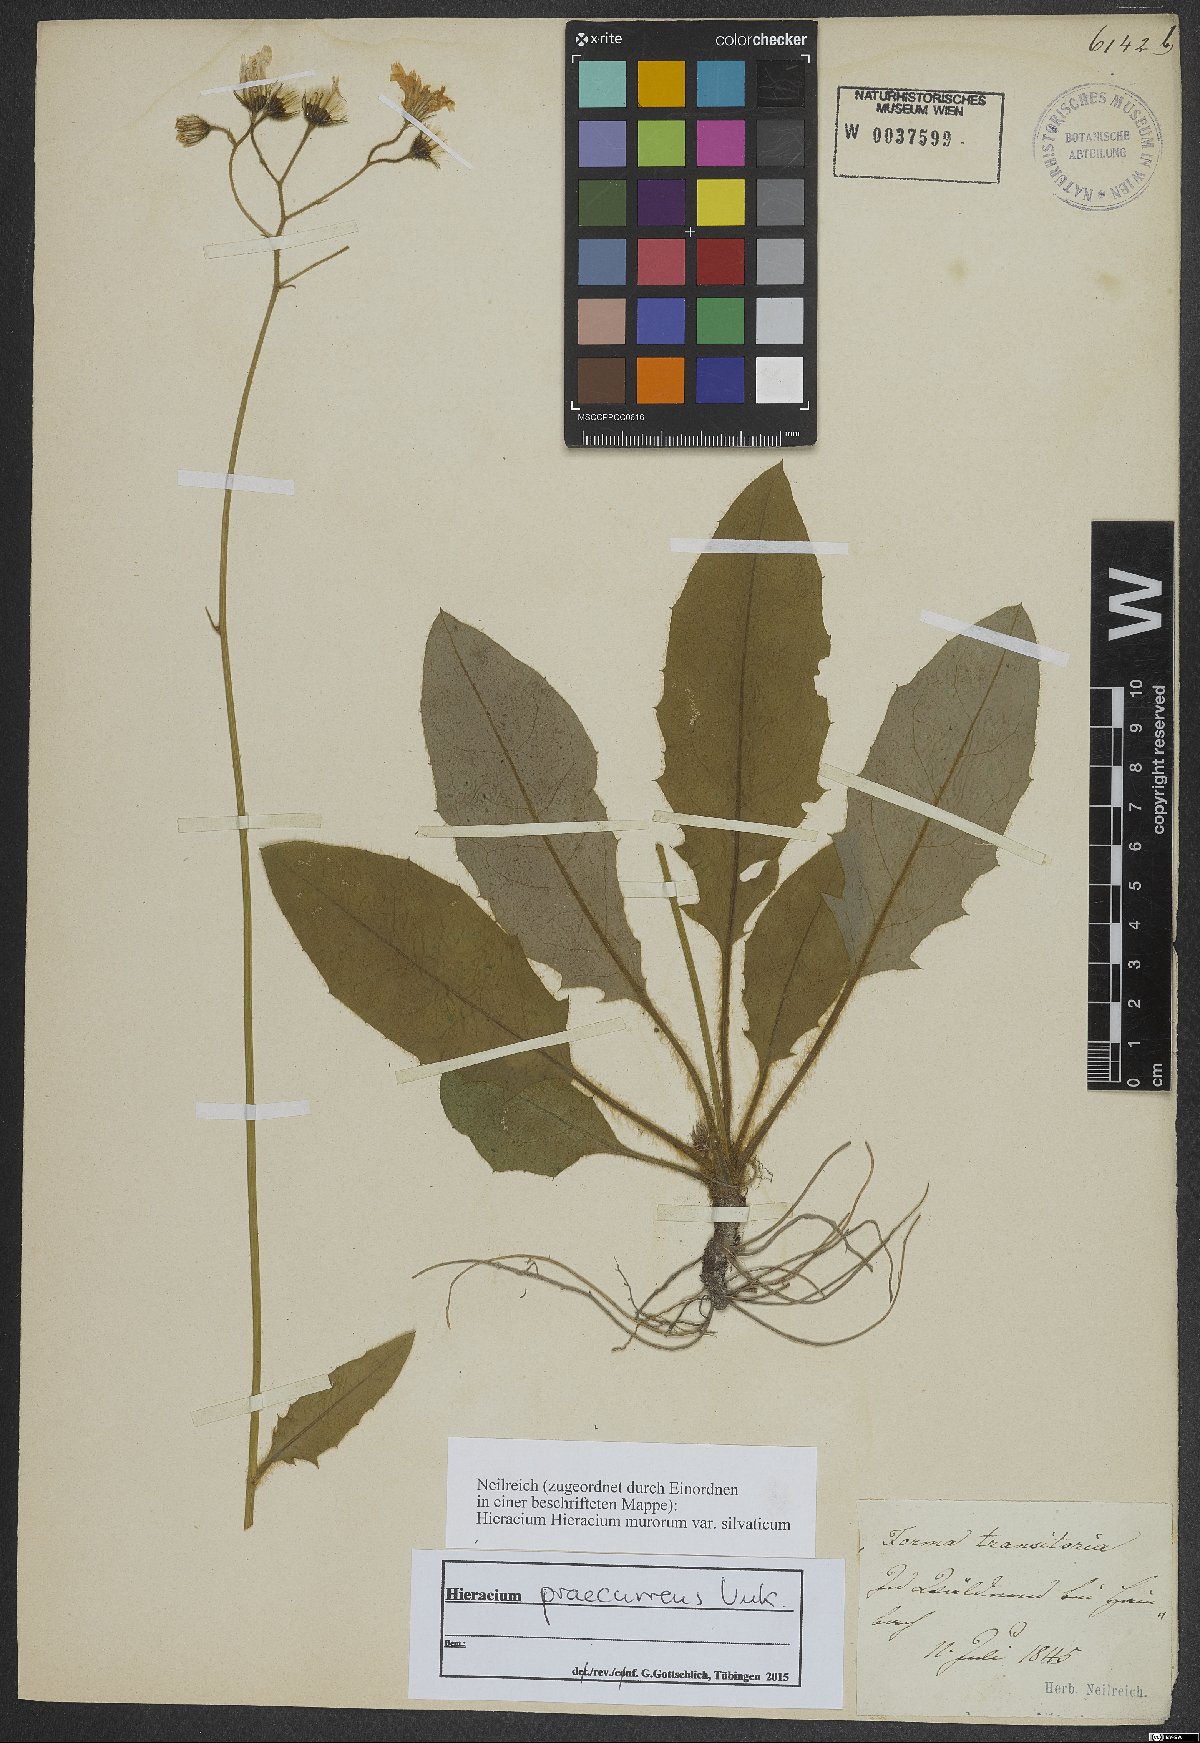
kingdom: Plantae
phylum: Tracheophyta
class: Magnoliopsida
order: Asterales
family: Asteraceae
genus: Hieracium
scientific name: Hieracium rotundatum
